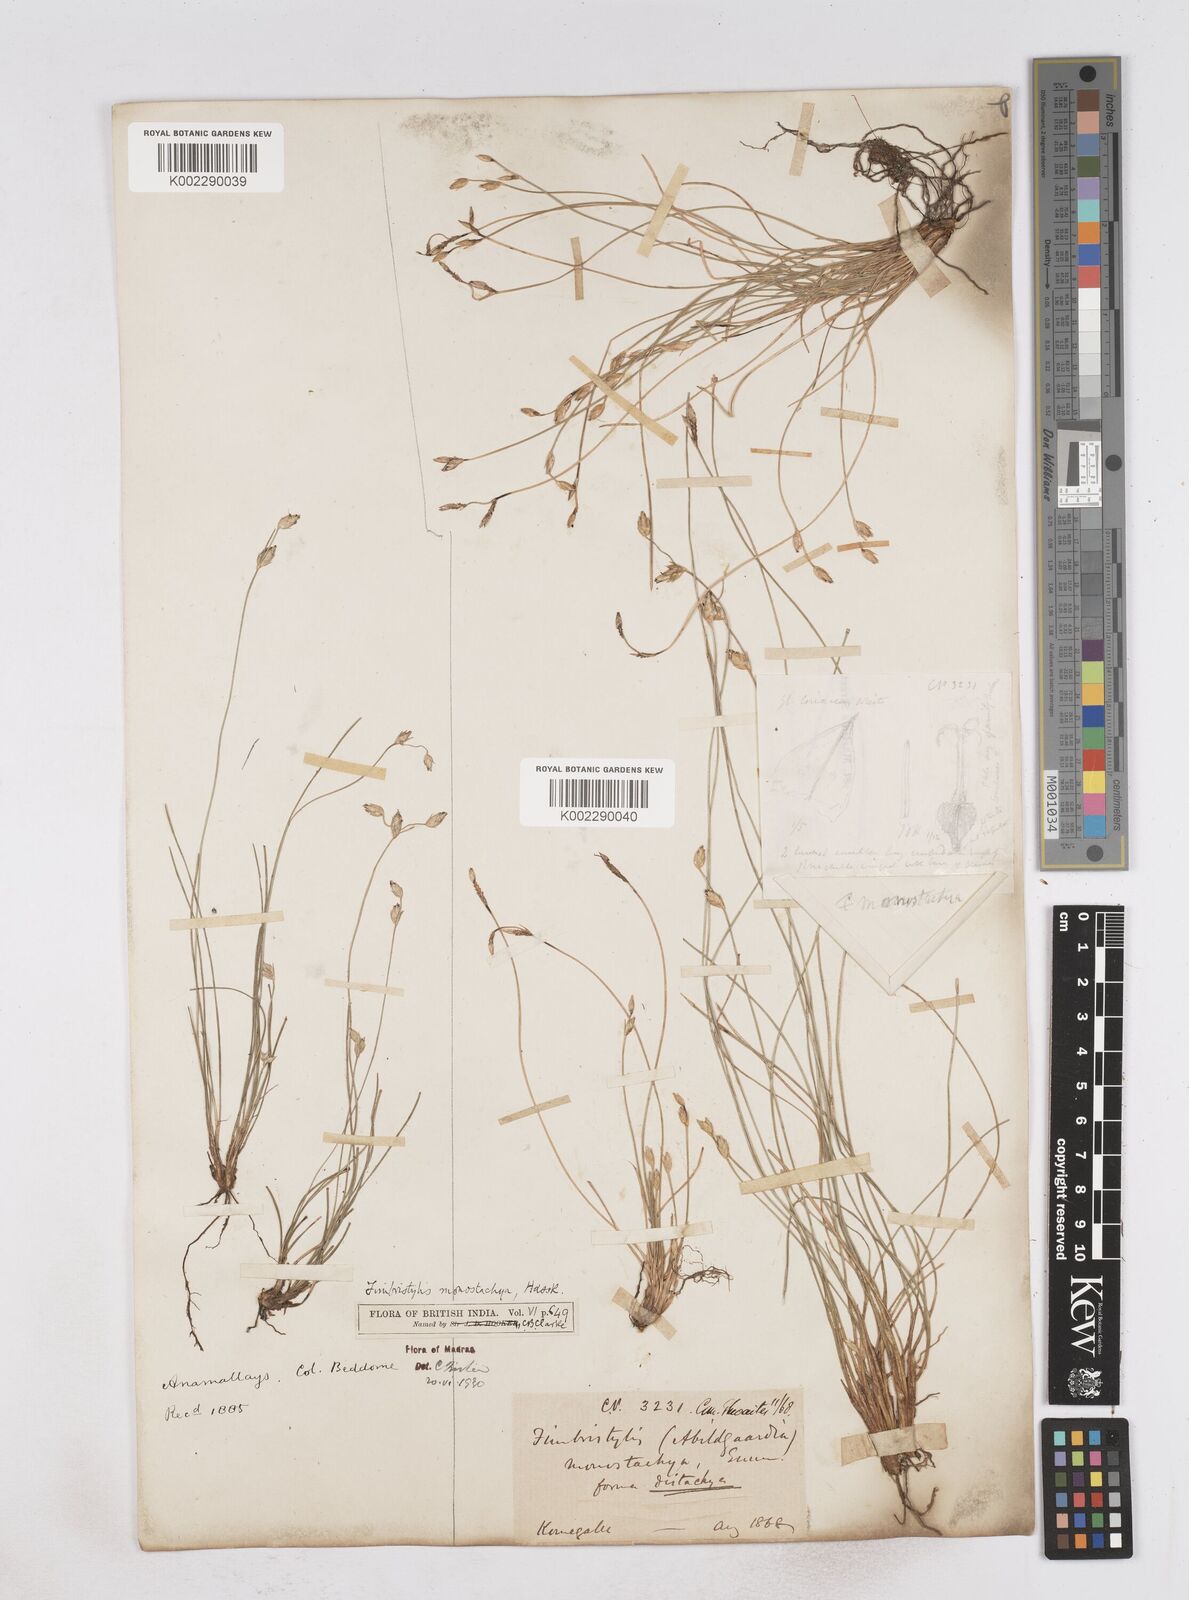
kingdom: Plantae
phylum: Tracheophyta
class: Liliopsida
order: Poales
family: Cyperaceae
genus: Abildgaardia
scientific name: Abildgaardia ovata
